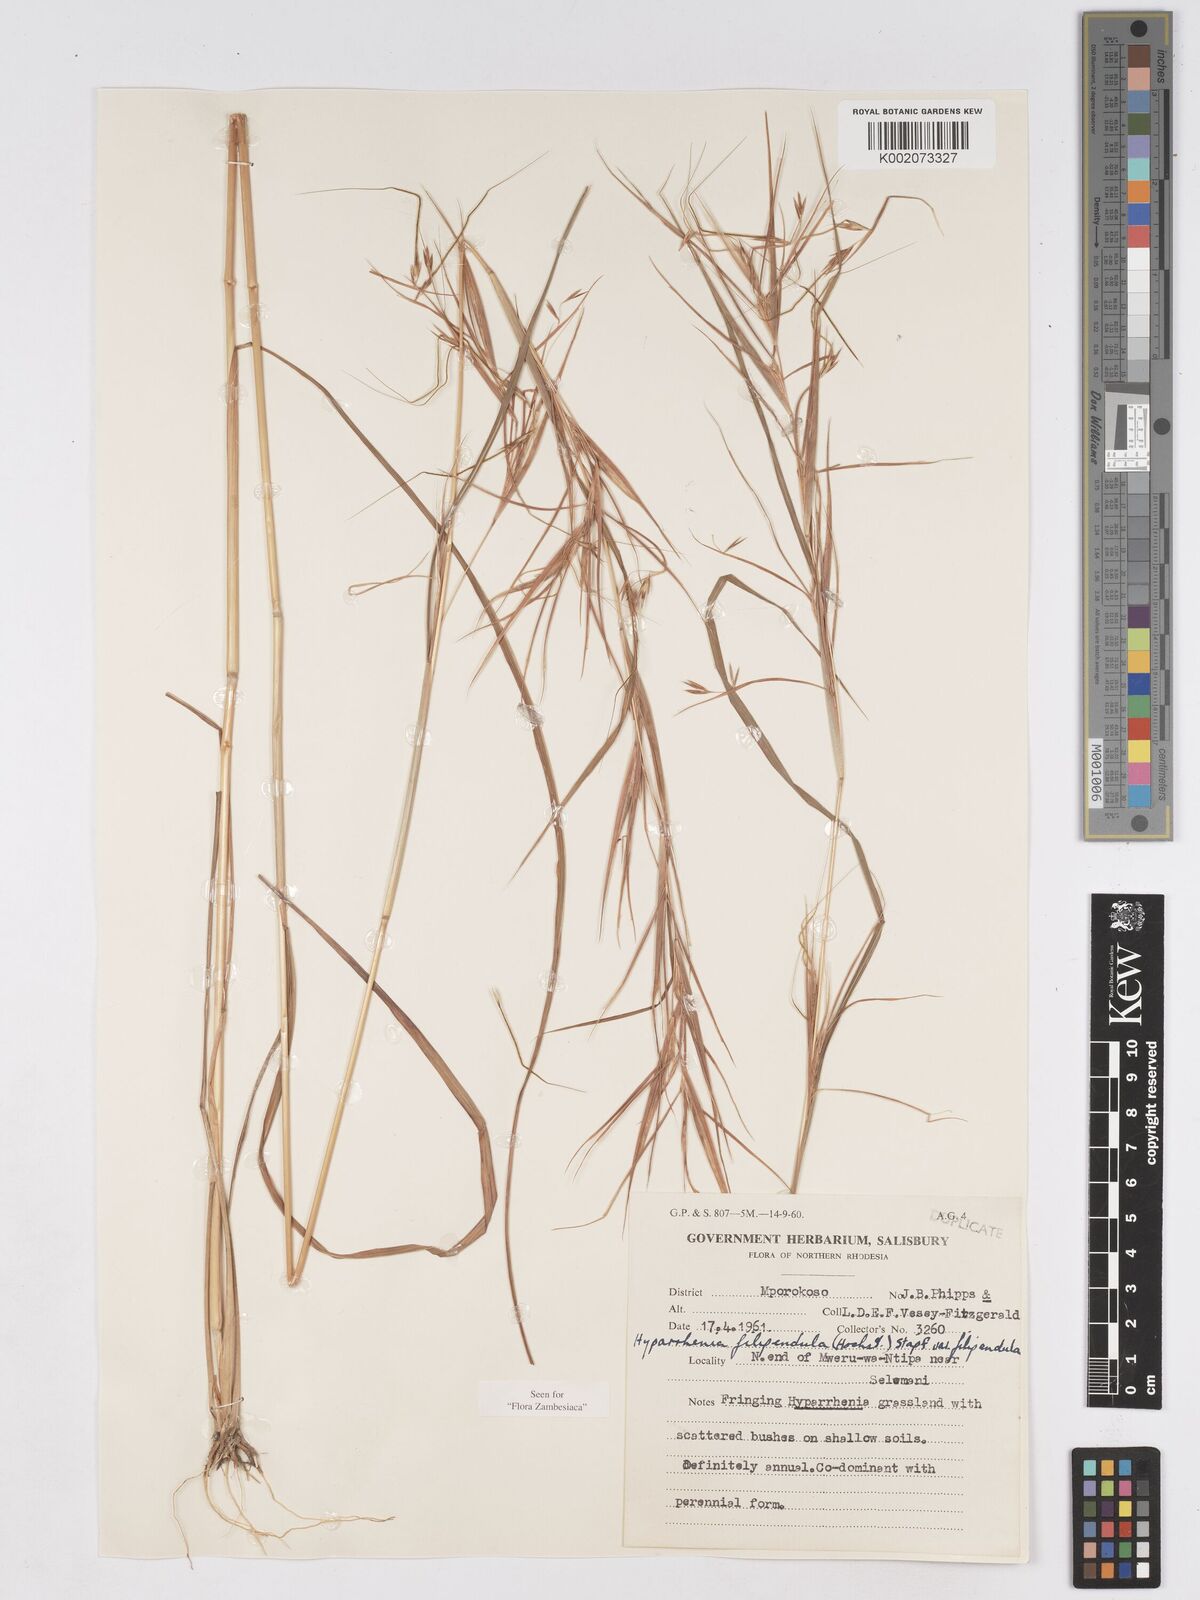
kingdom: Plantae
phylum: Tracheophyta
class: Liliopsida
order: Poales
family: Poaceae
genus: Hyparrhenia
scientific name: Hyparrhenia filipendula
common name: Tambookie grass
